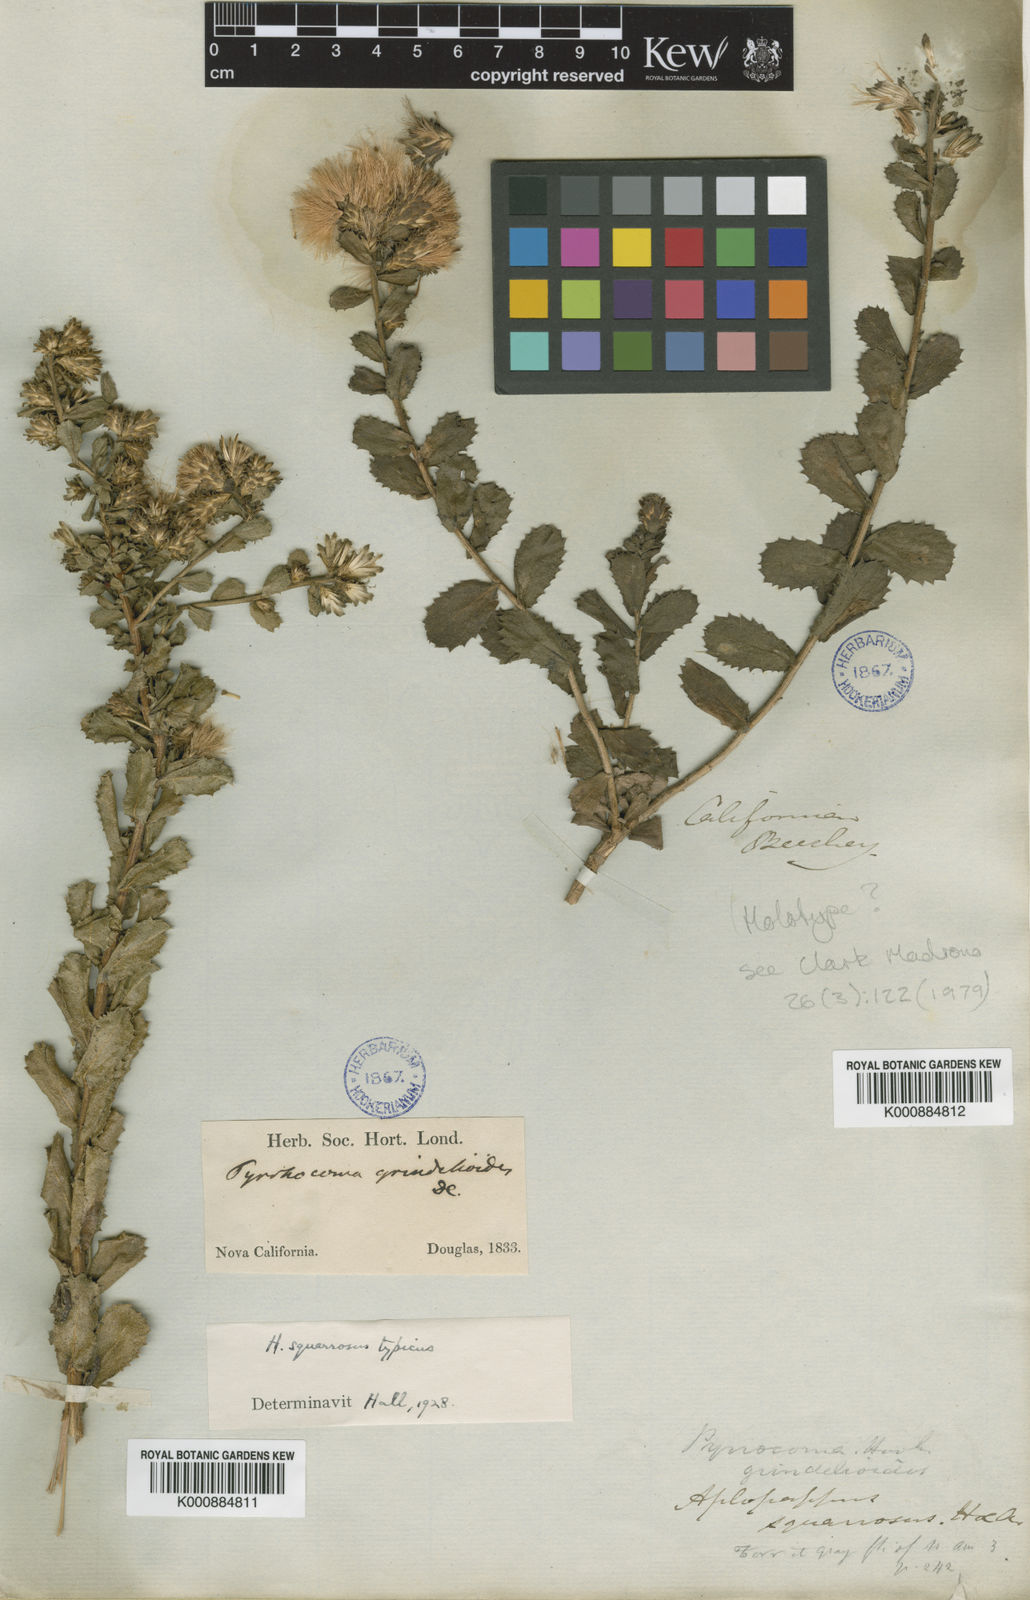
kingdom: Plantae
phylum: Tracheophyta
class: Magnoliopsida
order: Asterales
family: Asteraceae
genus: Hazardia
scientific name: Hazardia squarrosa
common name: Saw-tooth goldenbush
